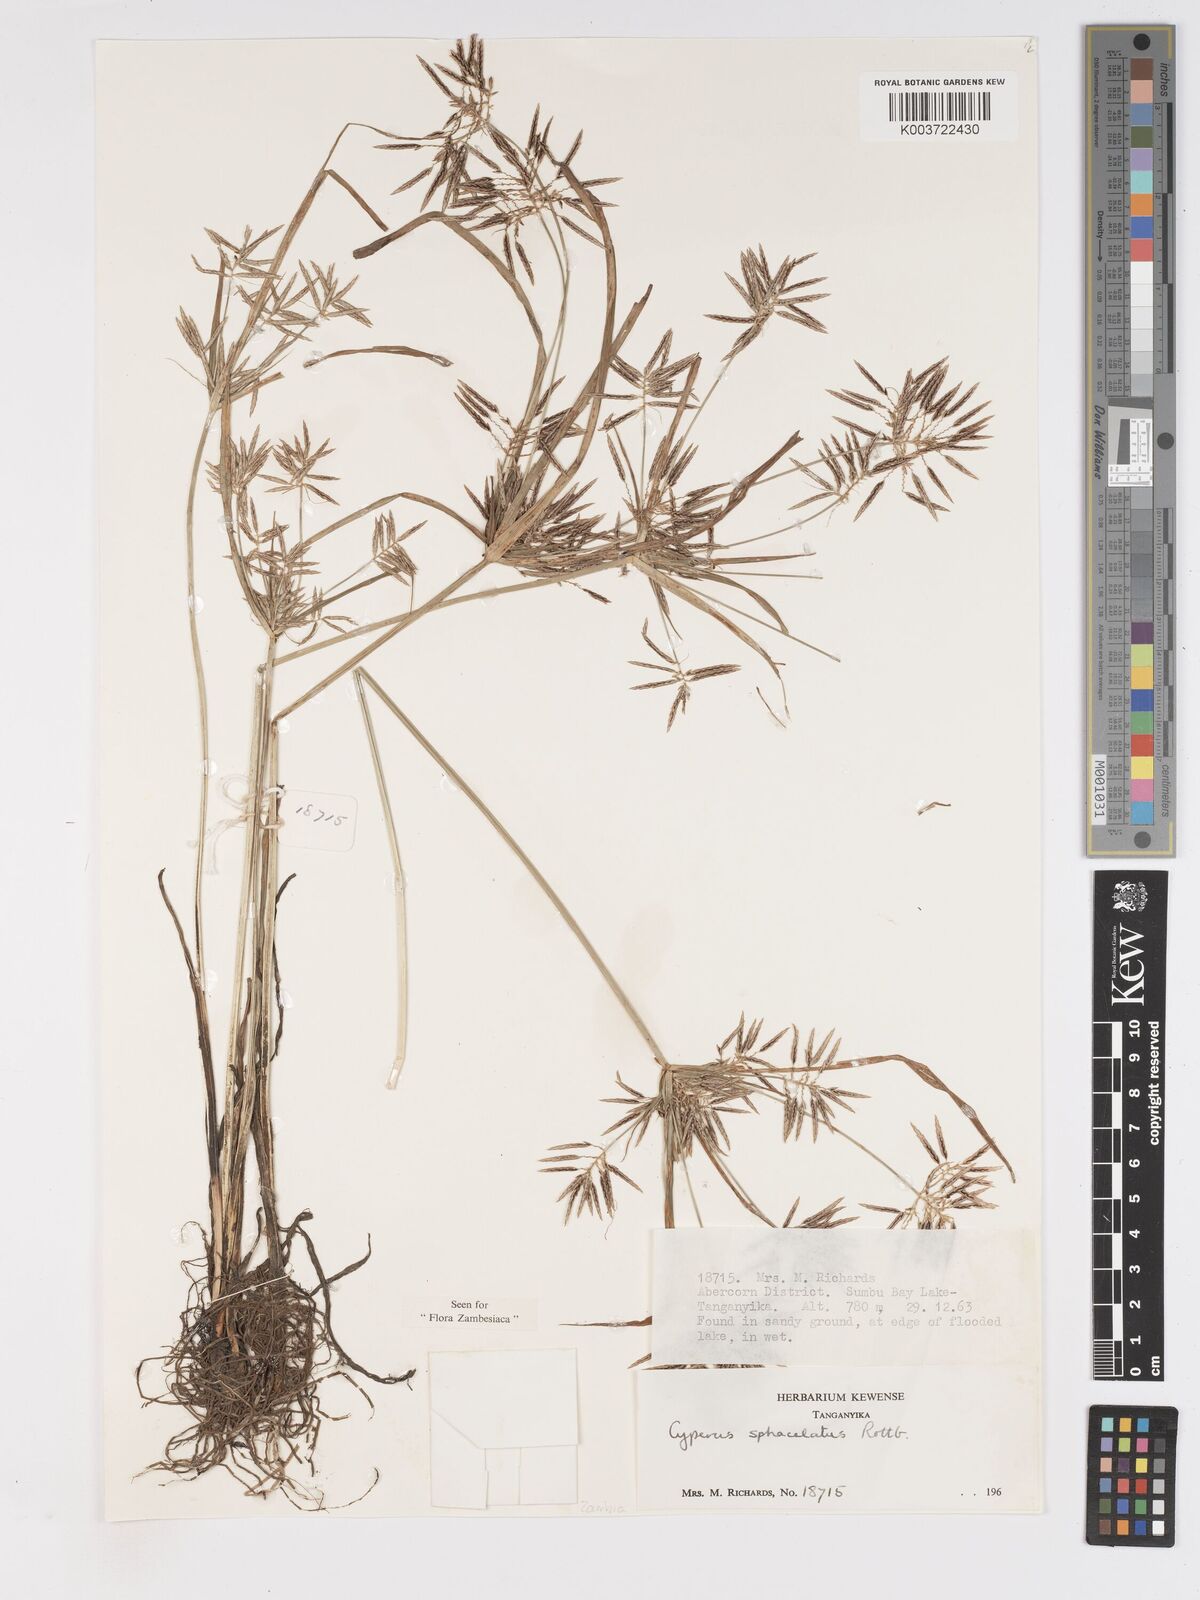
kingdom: Plantae
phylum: Tracheophyta
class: Liliopsida
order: Poales
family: Cyperaceae
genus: Cyperus
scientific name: Cyperus sphacelatus
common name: Roadside flatsedge
